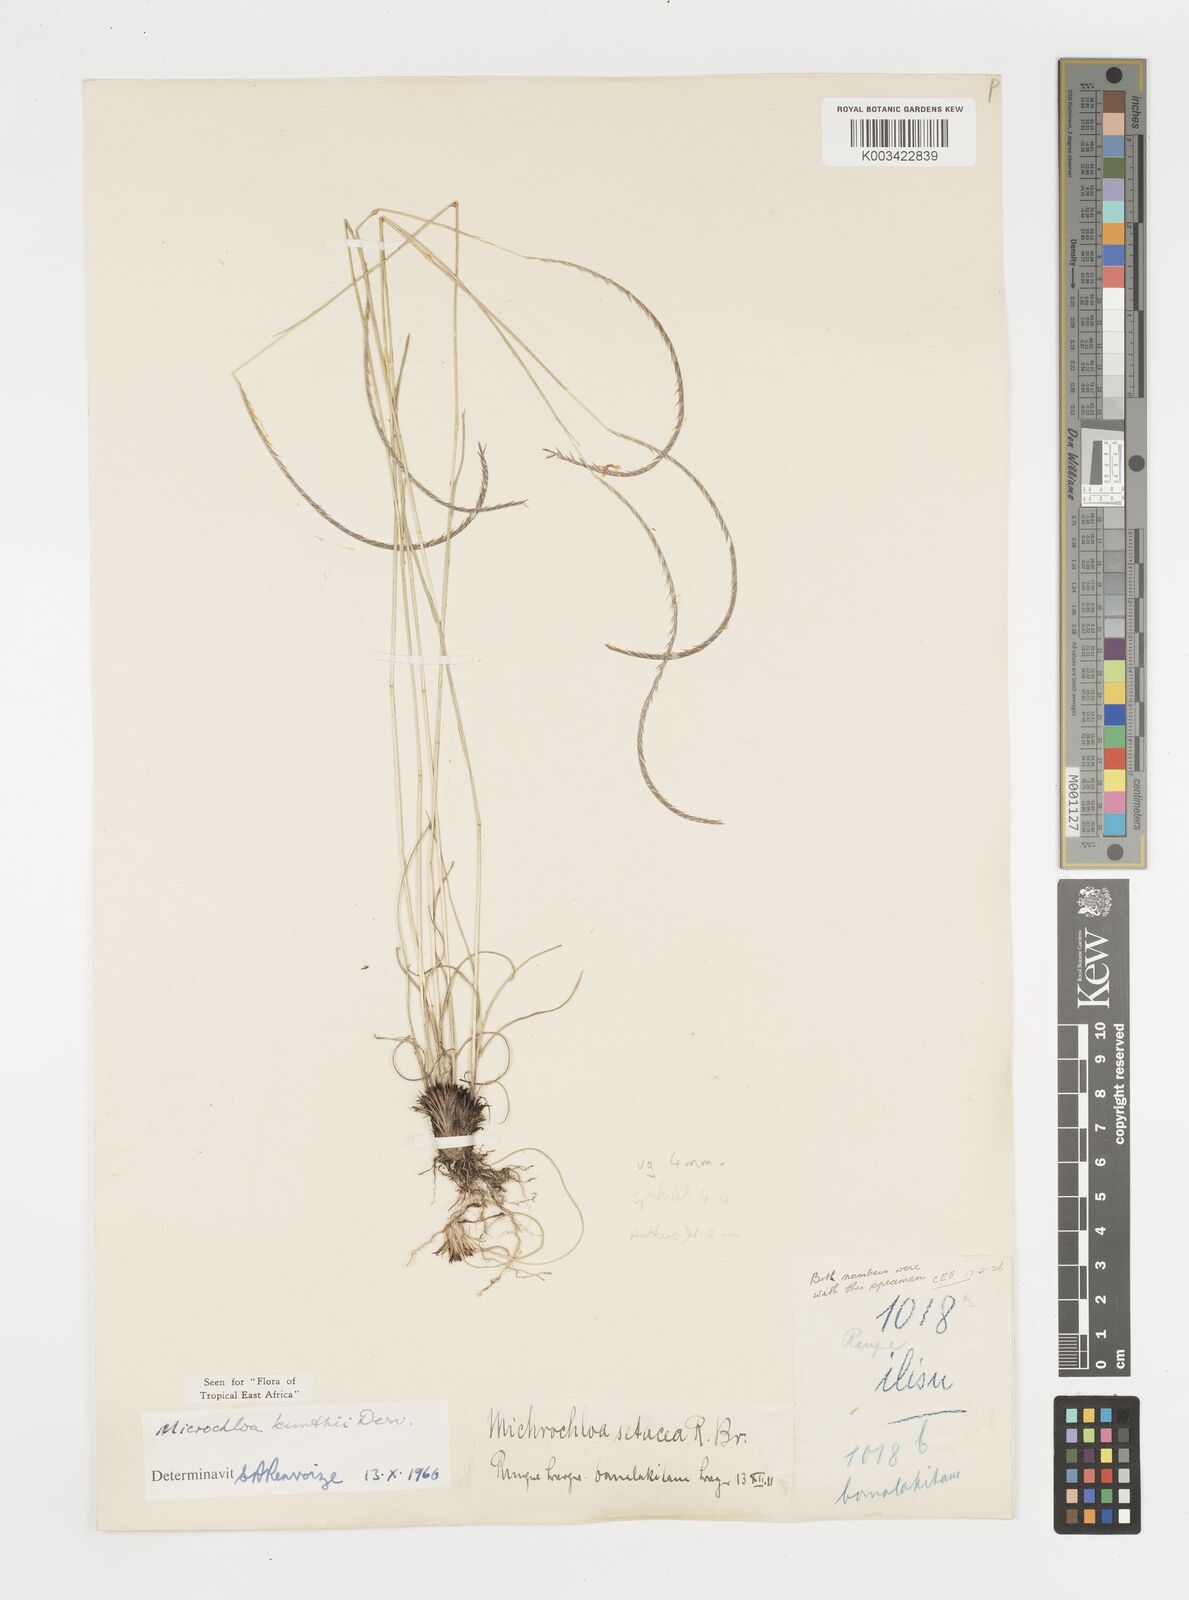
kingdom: Plantae
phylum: Tracheophyta
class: Liliopsida
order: Poales
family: Poaceae
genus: Microchloa
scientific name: Microchloa kunthii
